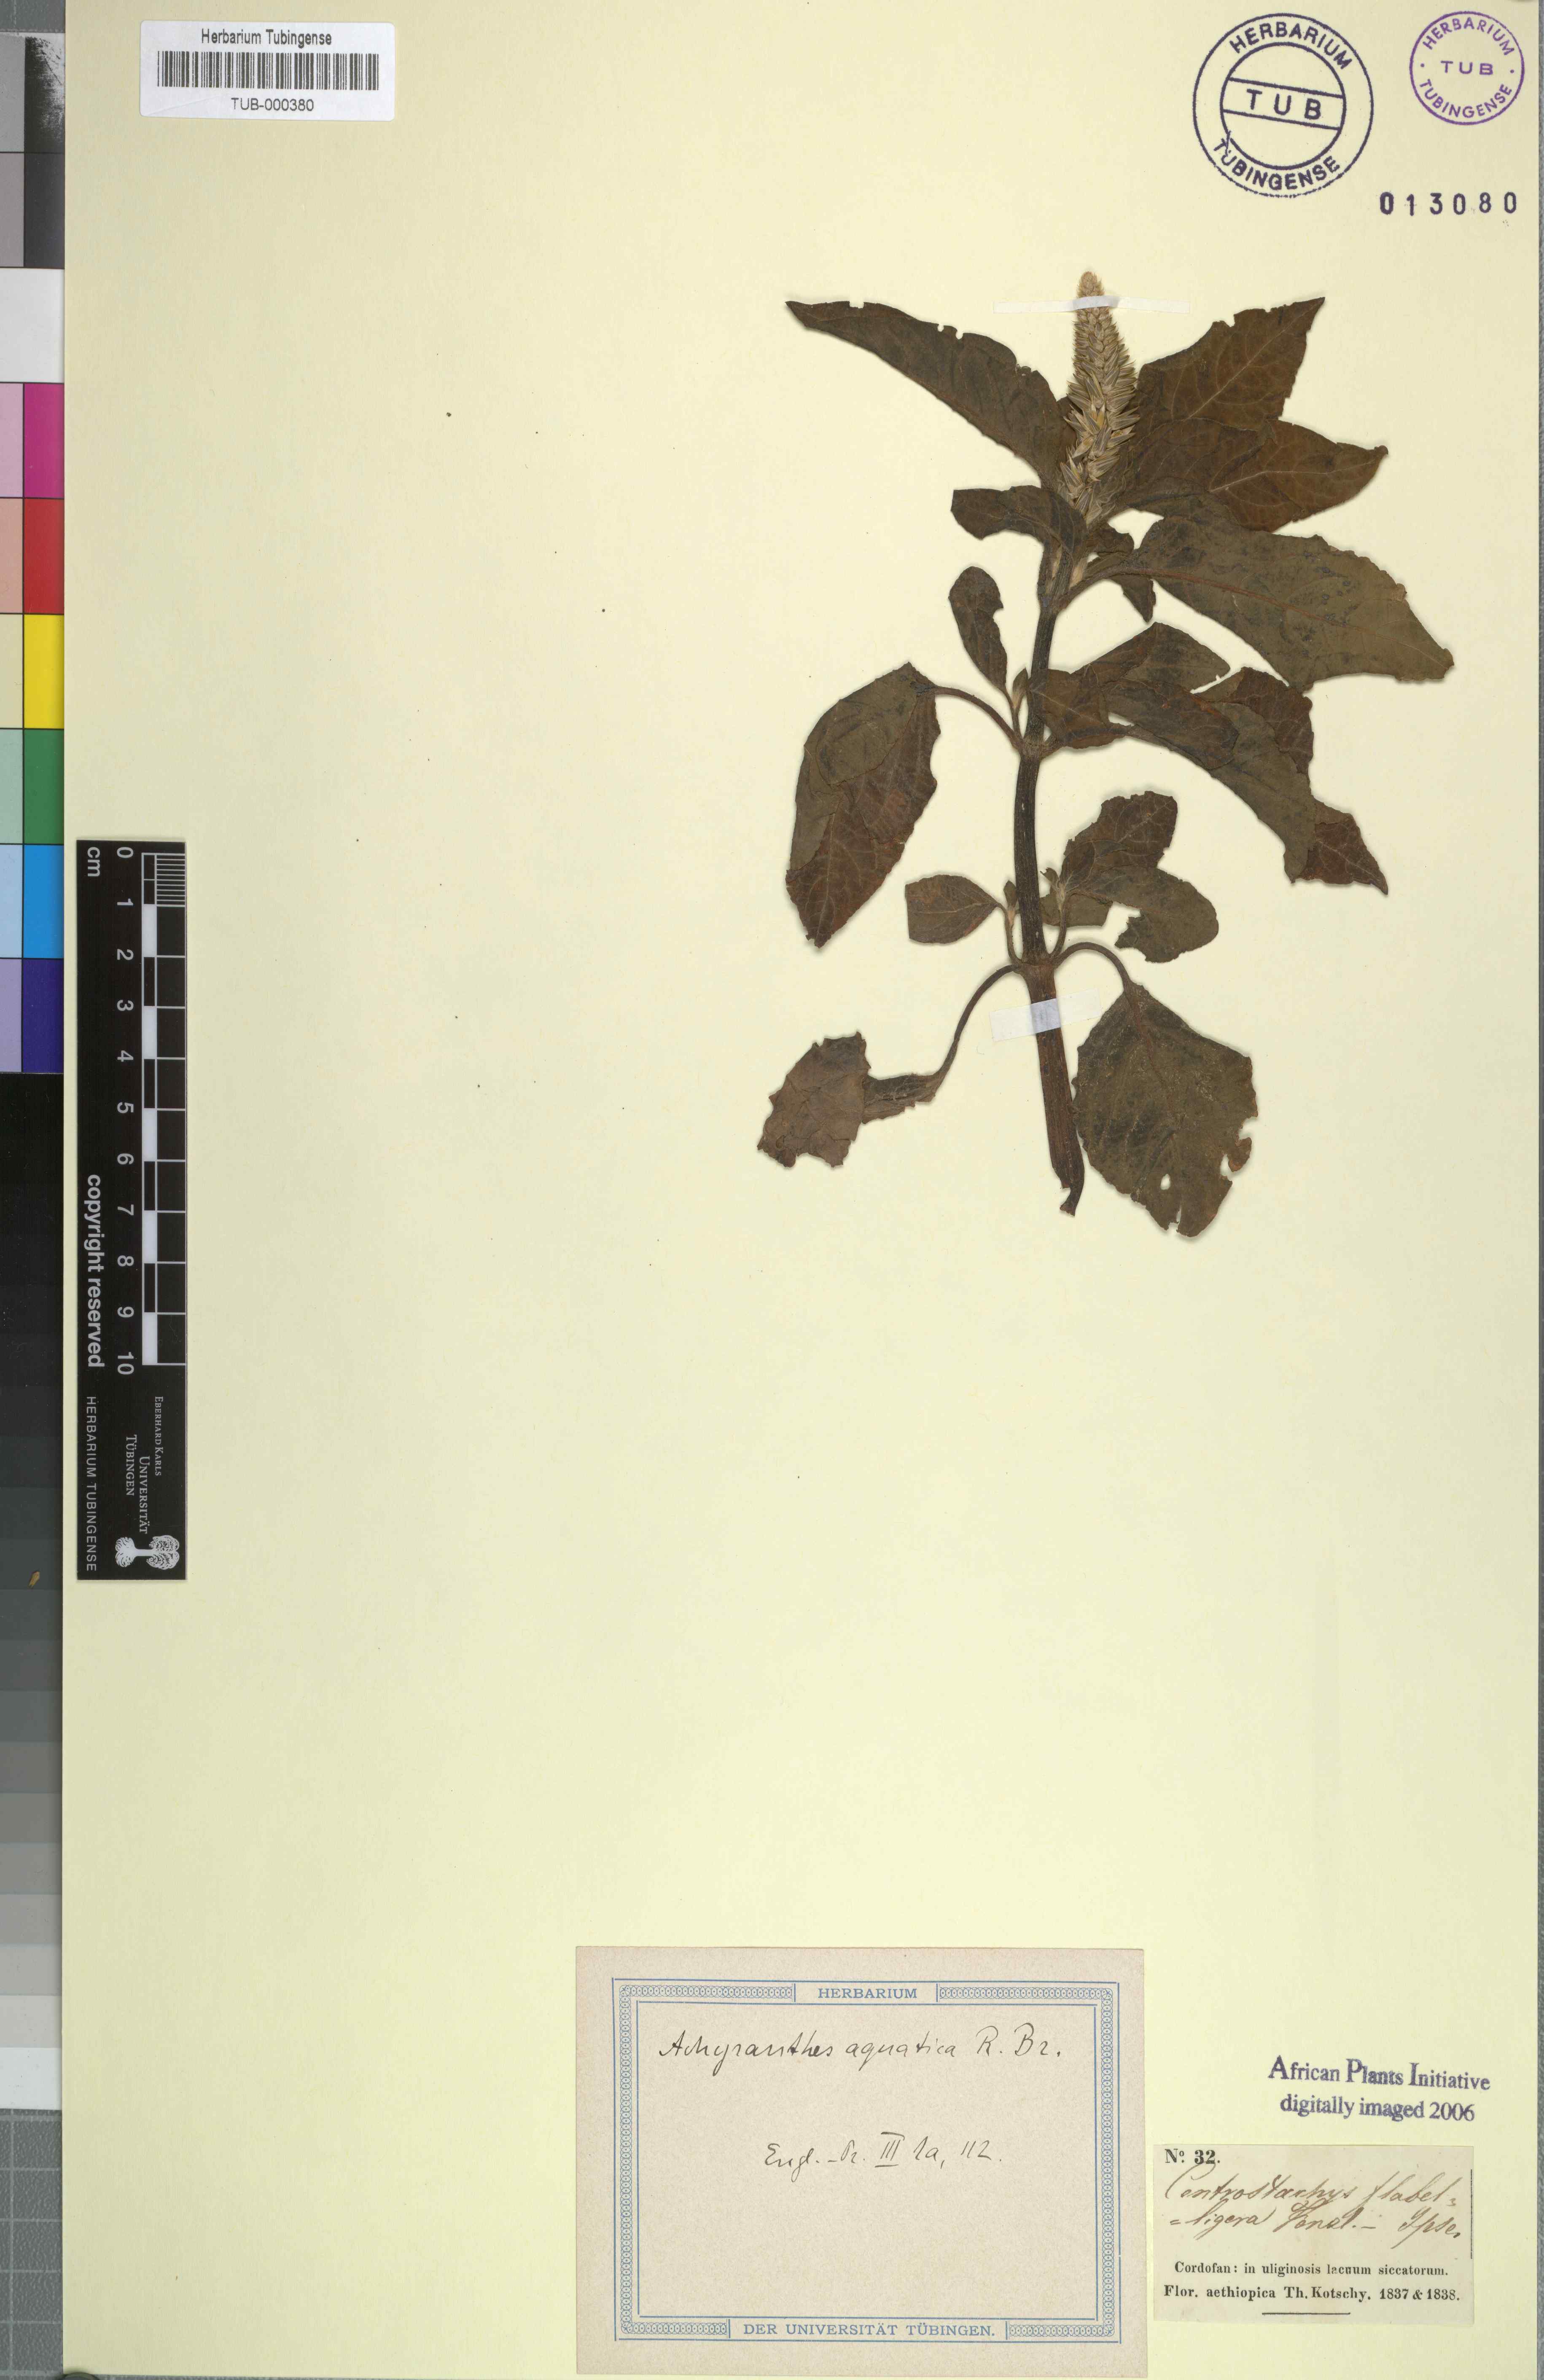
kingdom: Plantae
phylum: Tracheophyta
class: Magnoliopsida
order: Caryophyllales
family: Amaranthaceae
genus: Centrostachys
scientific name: Centrostachys aquatica
